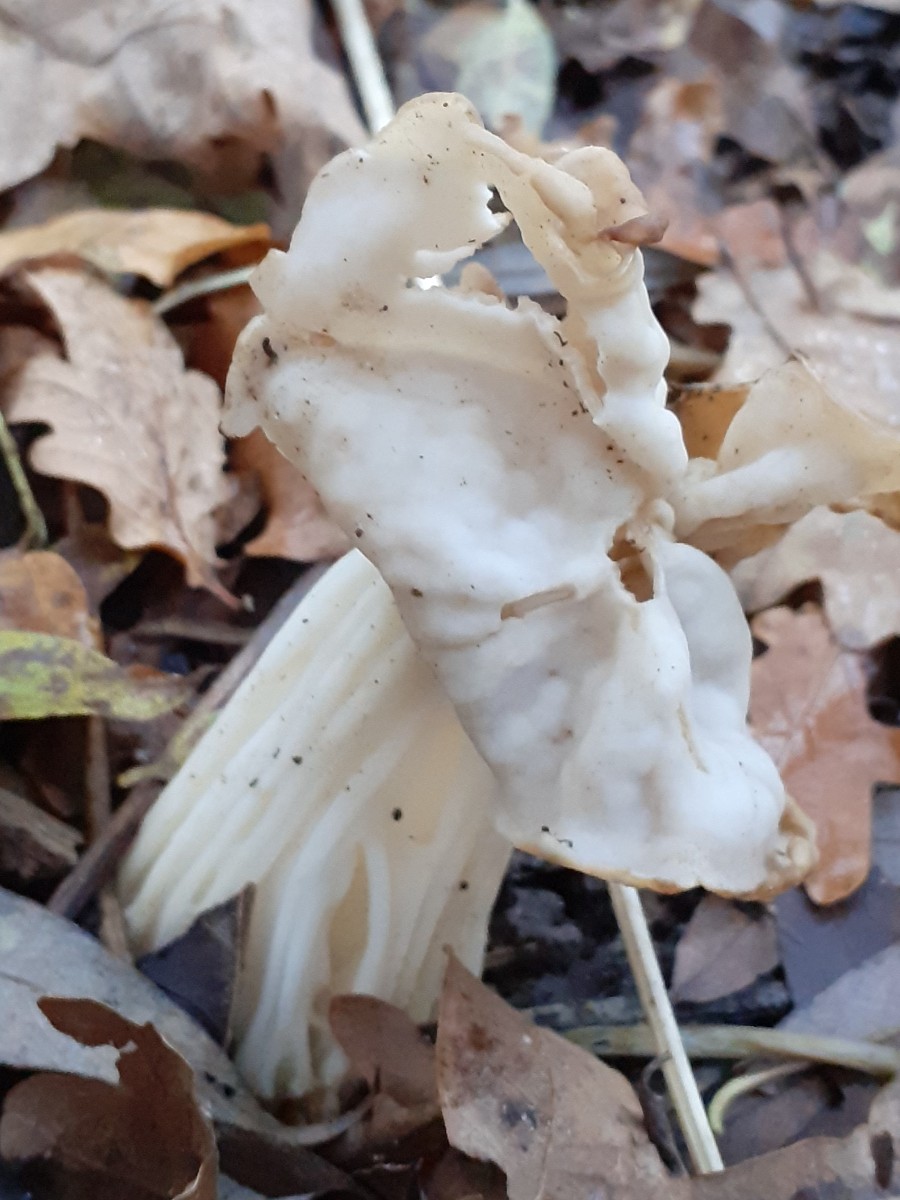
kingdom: Fungi
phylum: Ascomycota
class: Pezizomycetes
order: Pezizales
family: Helvellaceae
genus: Helvella
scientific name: Helvella crispa
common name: kruset foldhat
